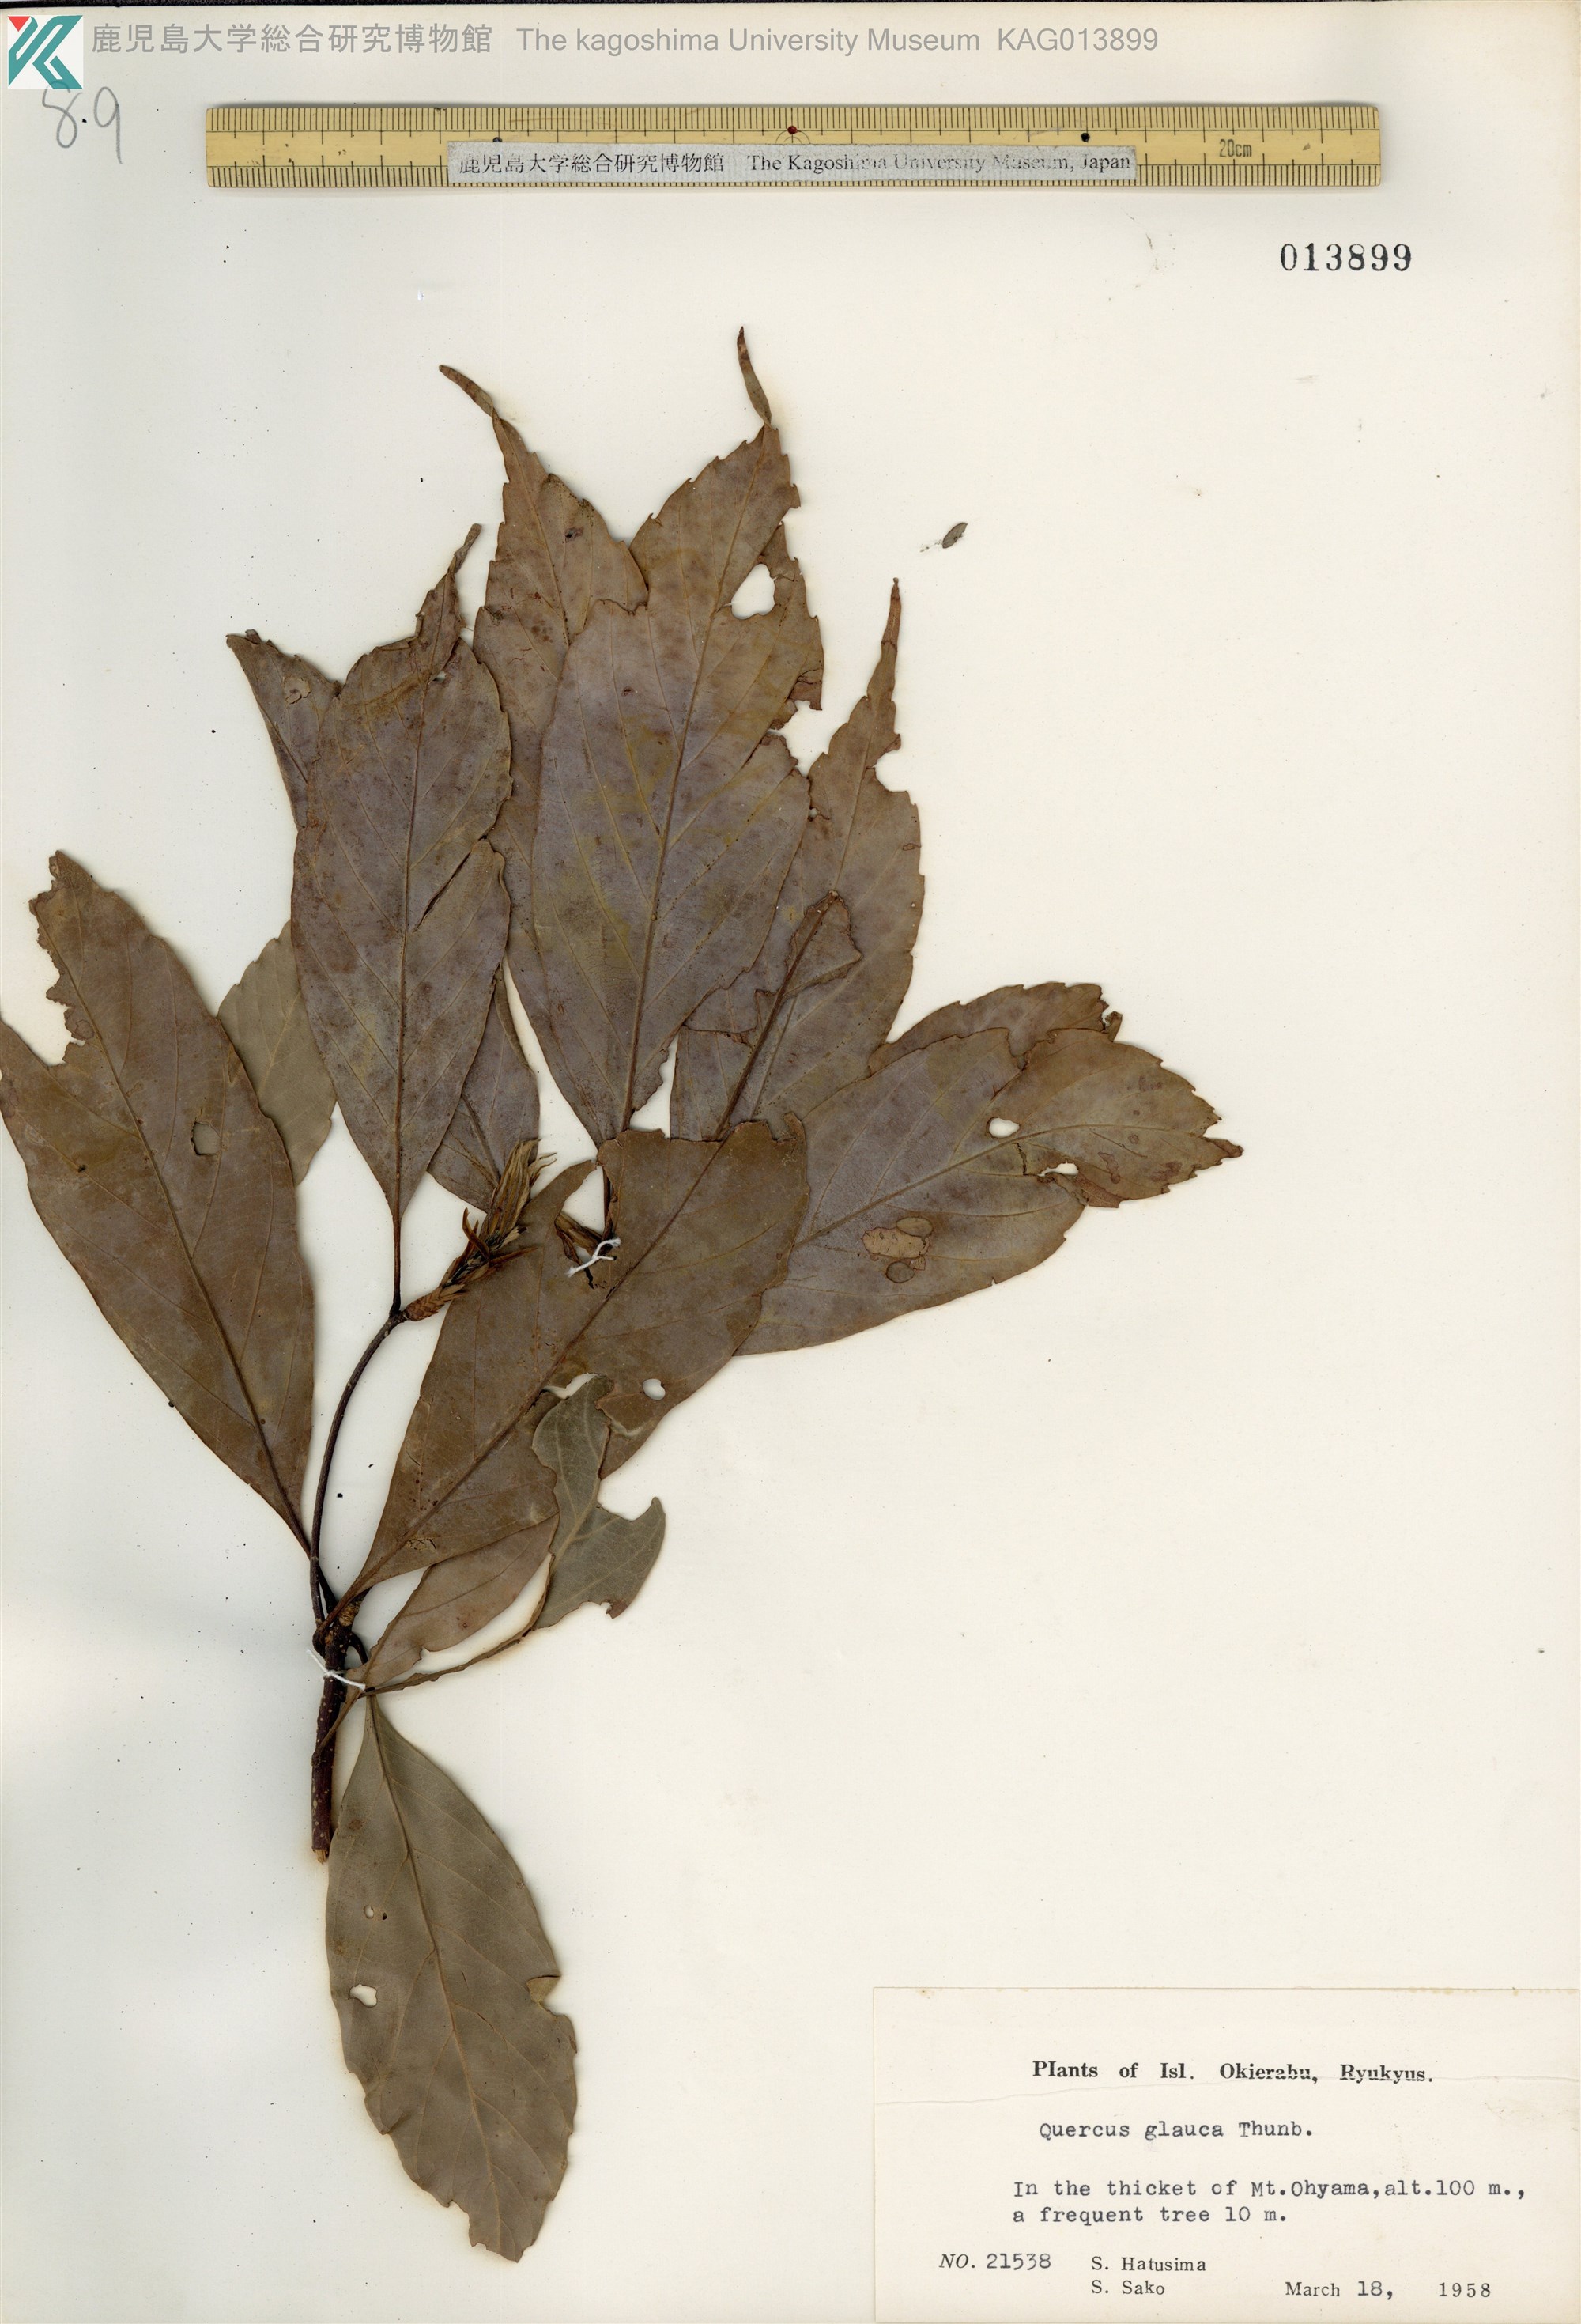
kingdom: Plantae
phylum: Tracheophyta
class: Magnoliopsida
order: Fagales
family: Fagaceae
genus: Quercus
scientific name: Quercus glauca
